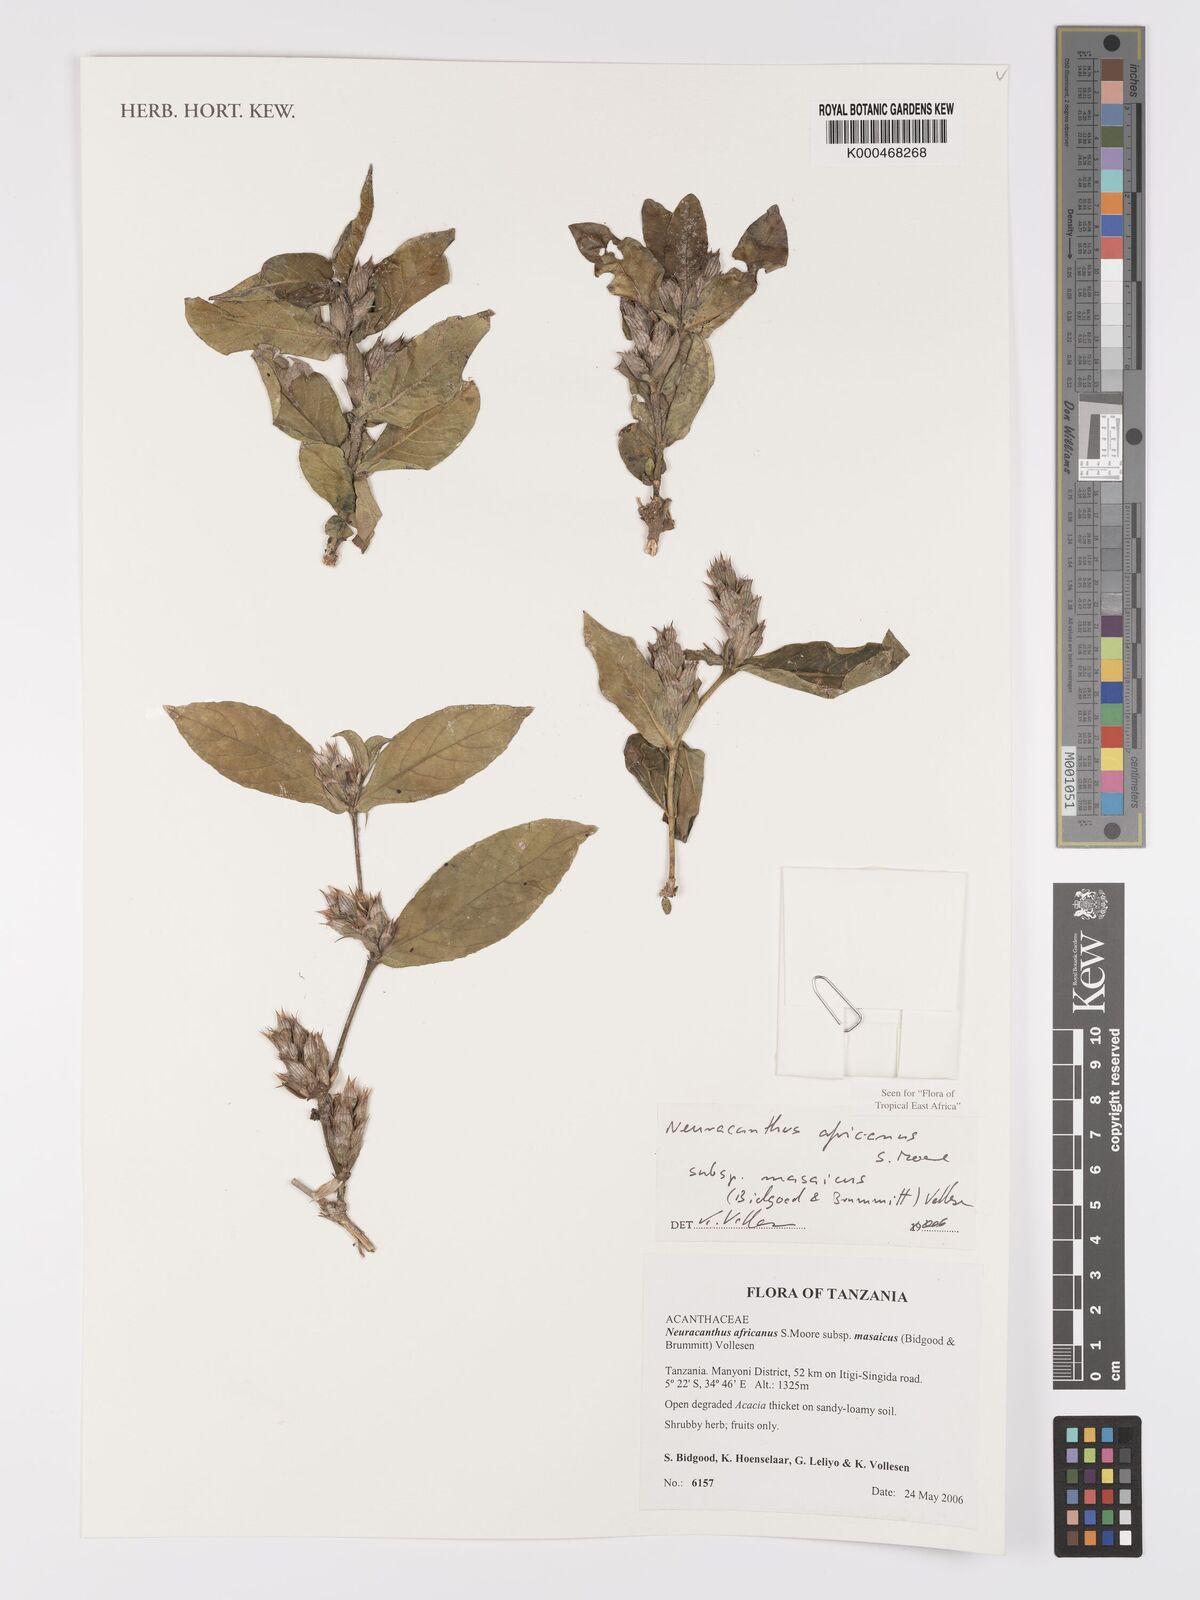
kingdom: Plantae
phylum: Tracheophyta
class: Magnoliopsida
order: Lamiales
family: Acanthaceae
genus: Neuracanthus
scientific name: Neuracanthus africanus
